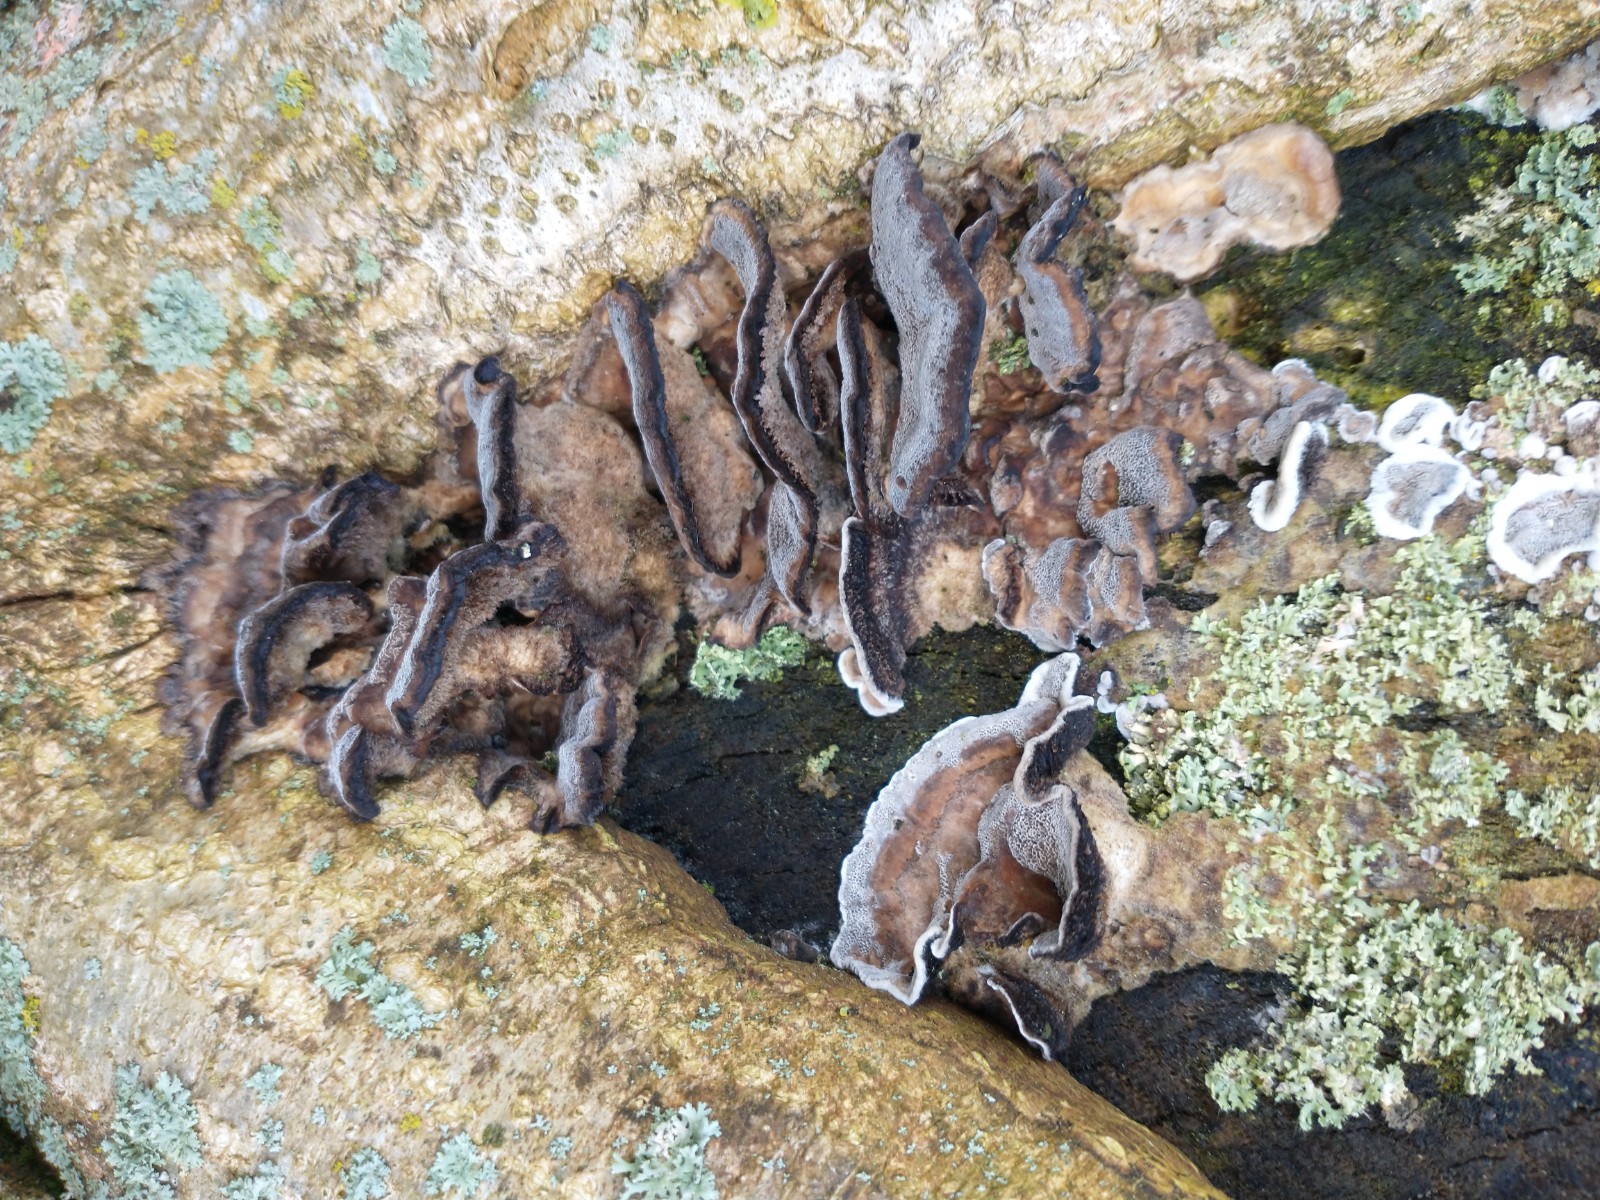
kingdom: Fungi
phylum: Basidiomycota
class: Agaricomycetes
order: Polyporales
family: Phanerochaetaceae
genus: Bjerkandera
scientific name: Bjerkandera adusta
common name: sveden sodporesvamp
